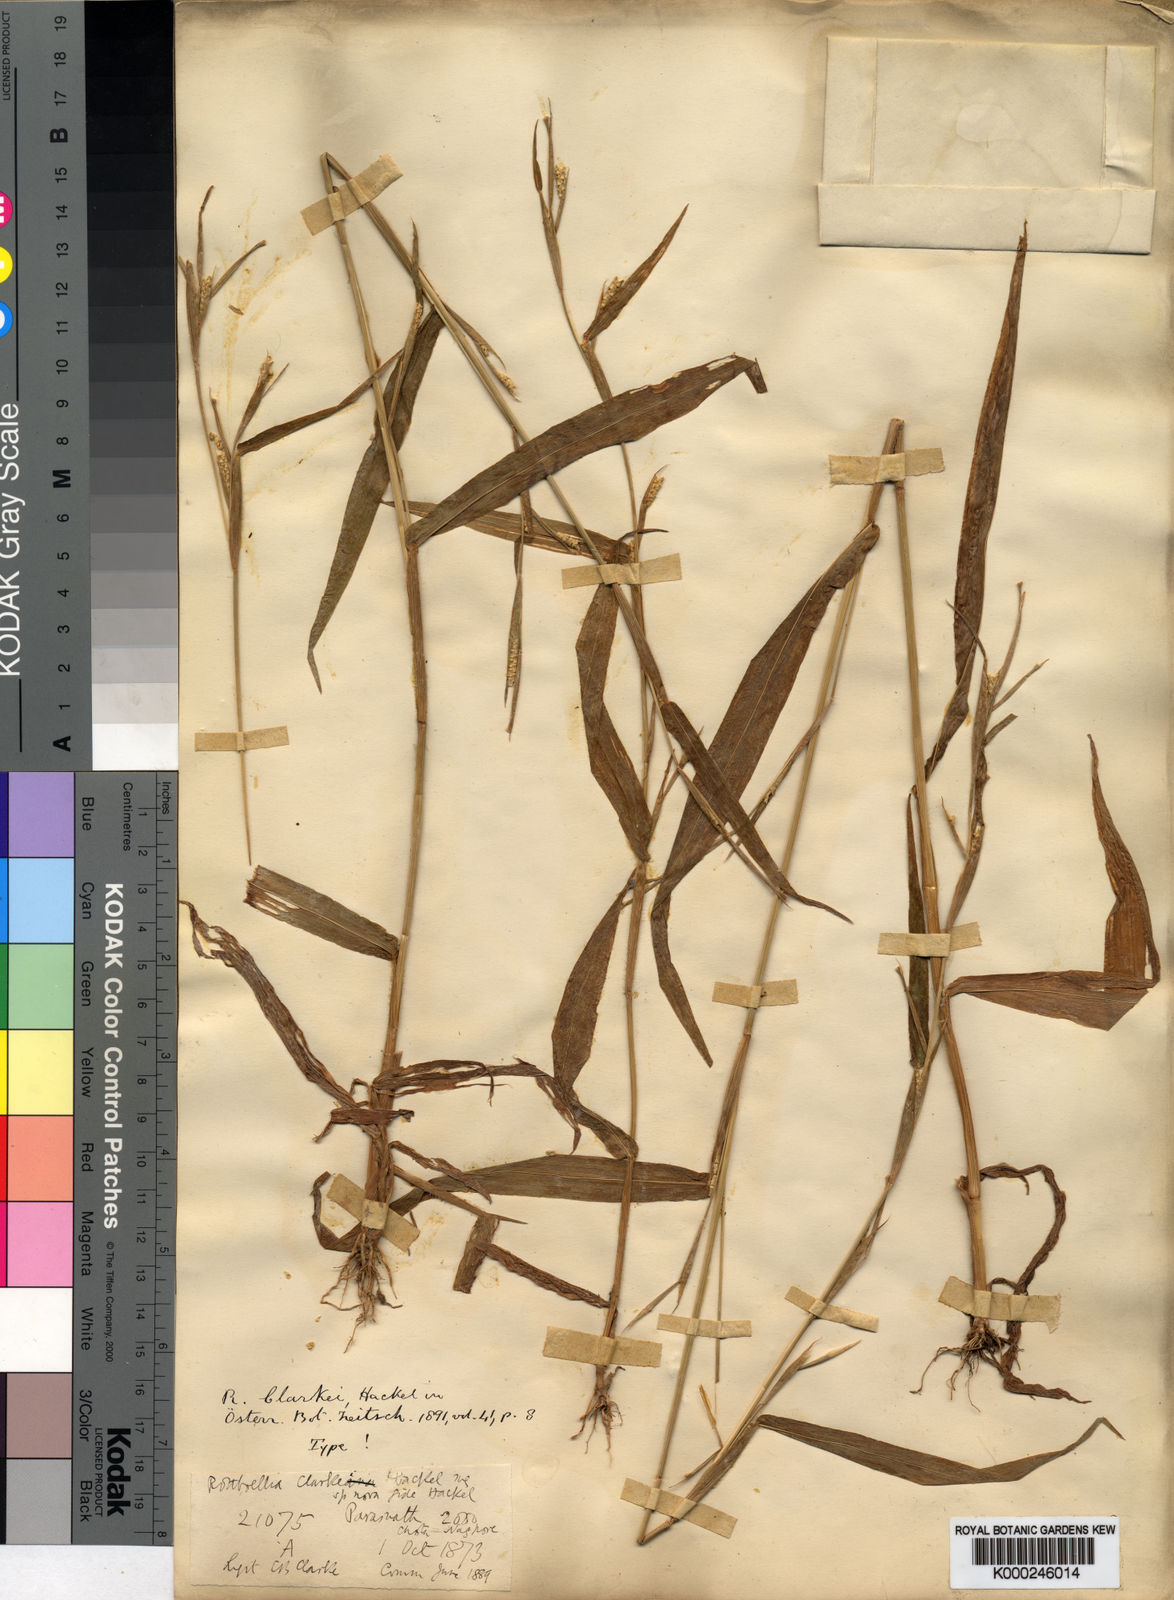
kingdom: Plantae
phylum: Tracheophyta
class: Liliopsida
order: Poales
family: Poaceae
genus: Rottboellia
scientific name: Rottboellia clarkei
